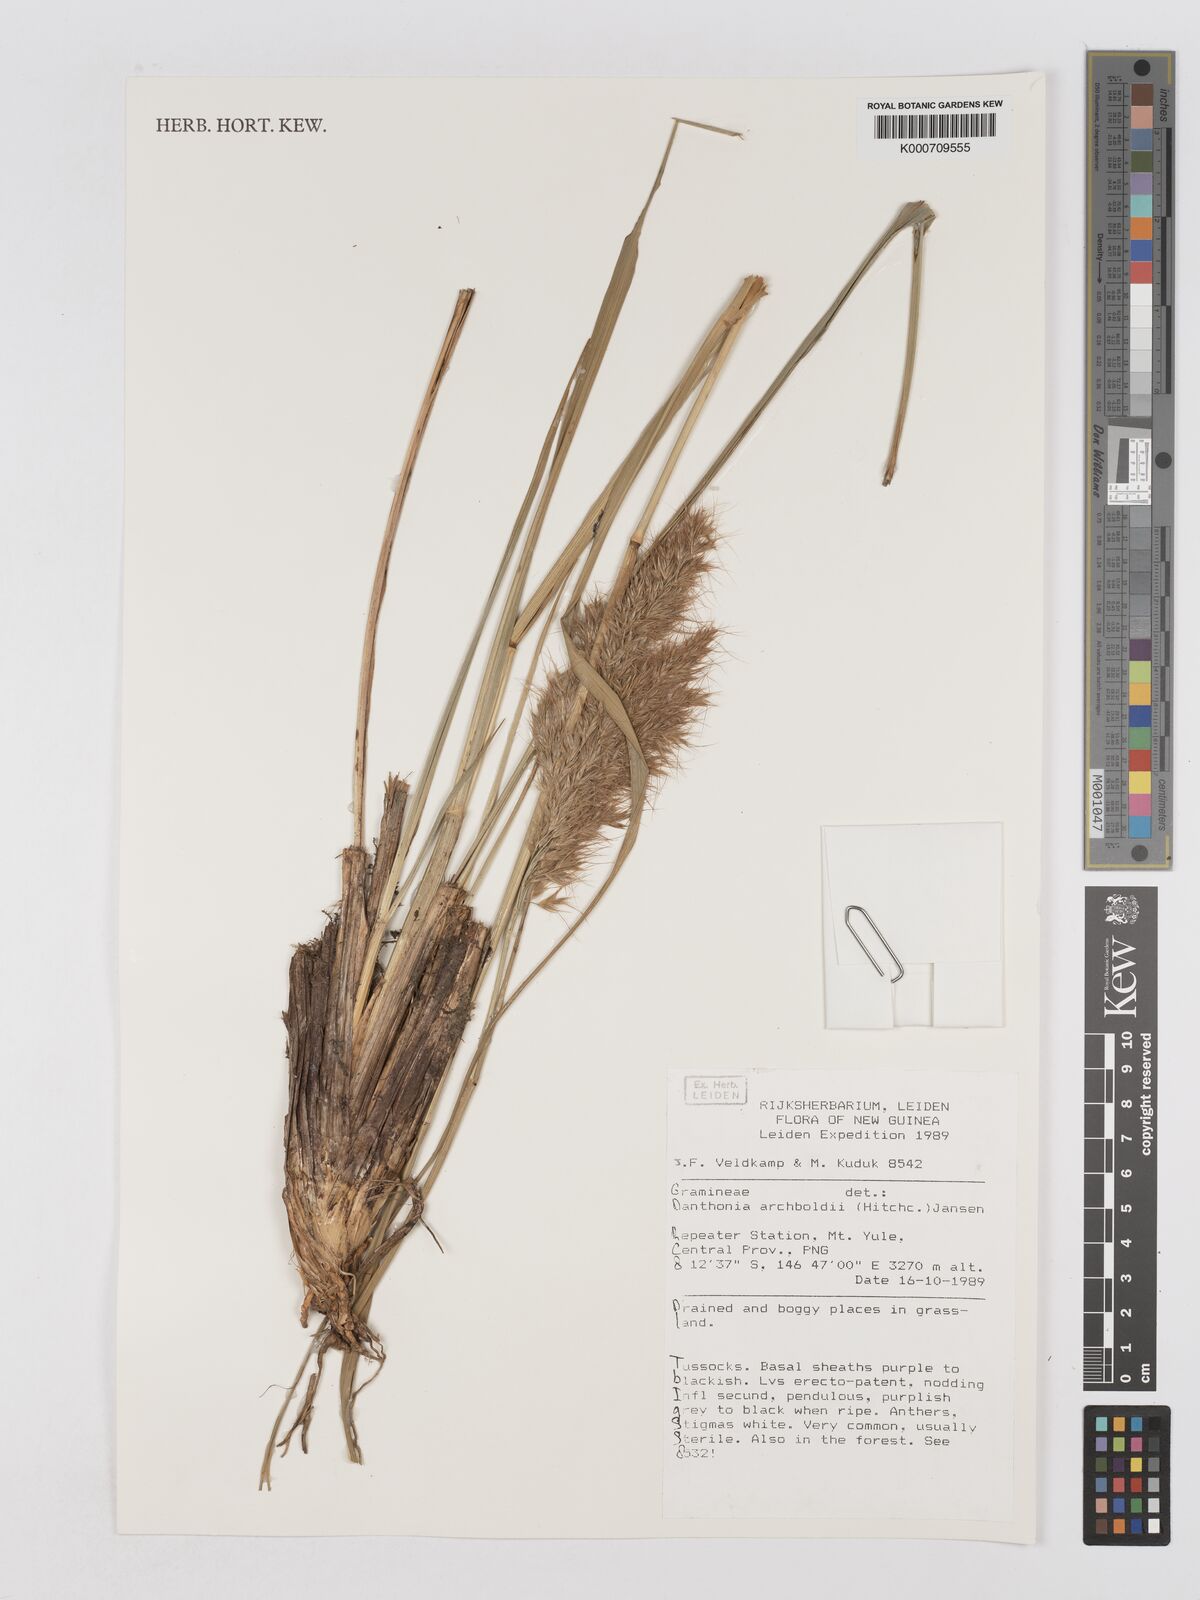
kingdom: Plantae
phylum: Tracheophyta
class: Liliopsida
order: Poales
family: Poaceae
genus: Chimaerochloa
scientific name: Chimaerochloa archboldii
